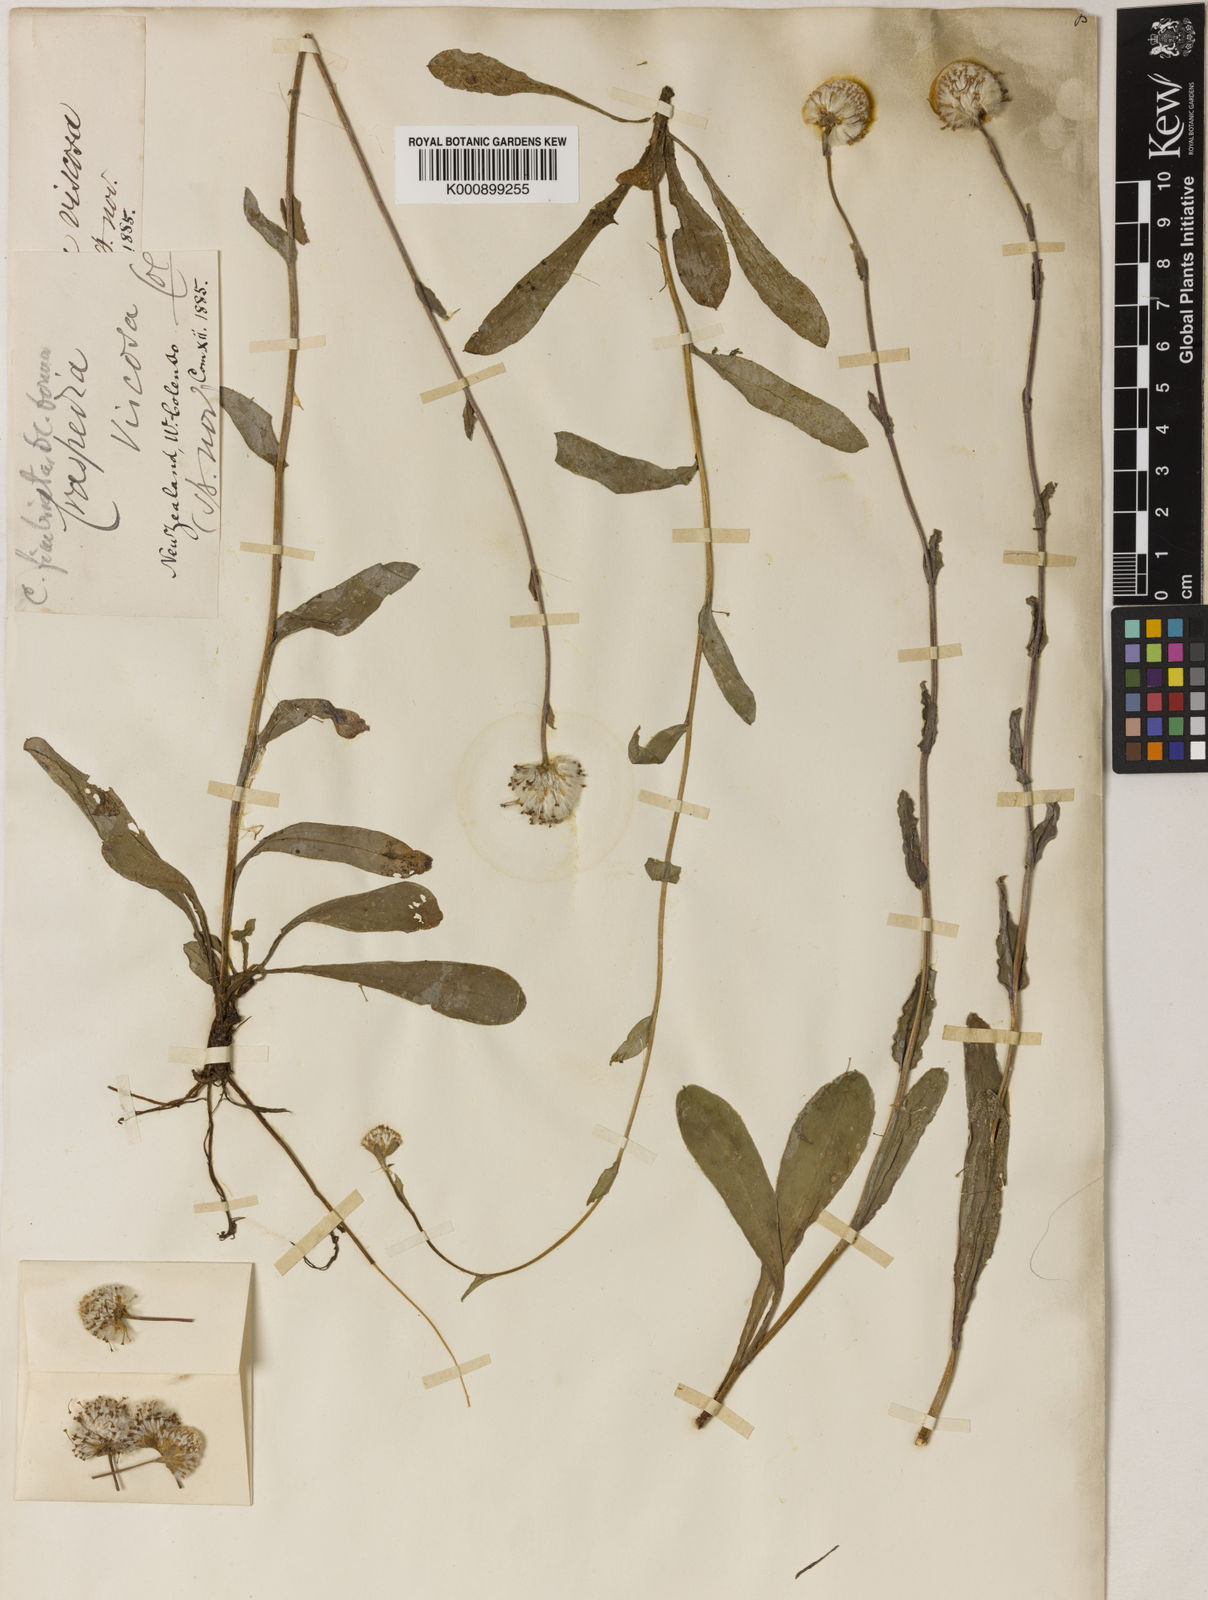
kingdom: Plantae
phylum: Tracheophyta
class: Magnoliopsida
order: Asterales
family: Asteraceae
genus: Craspedia
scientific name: Craspedia minor
